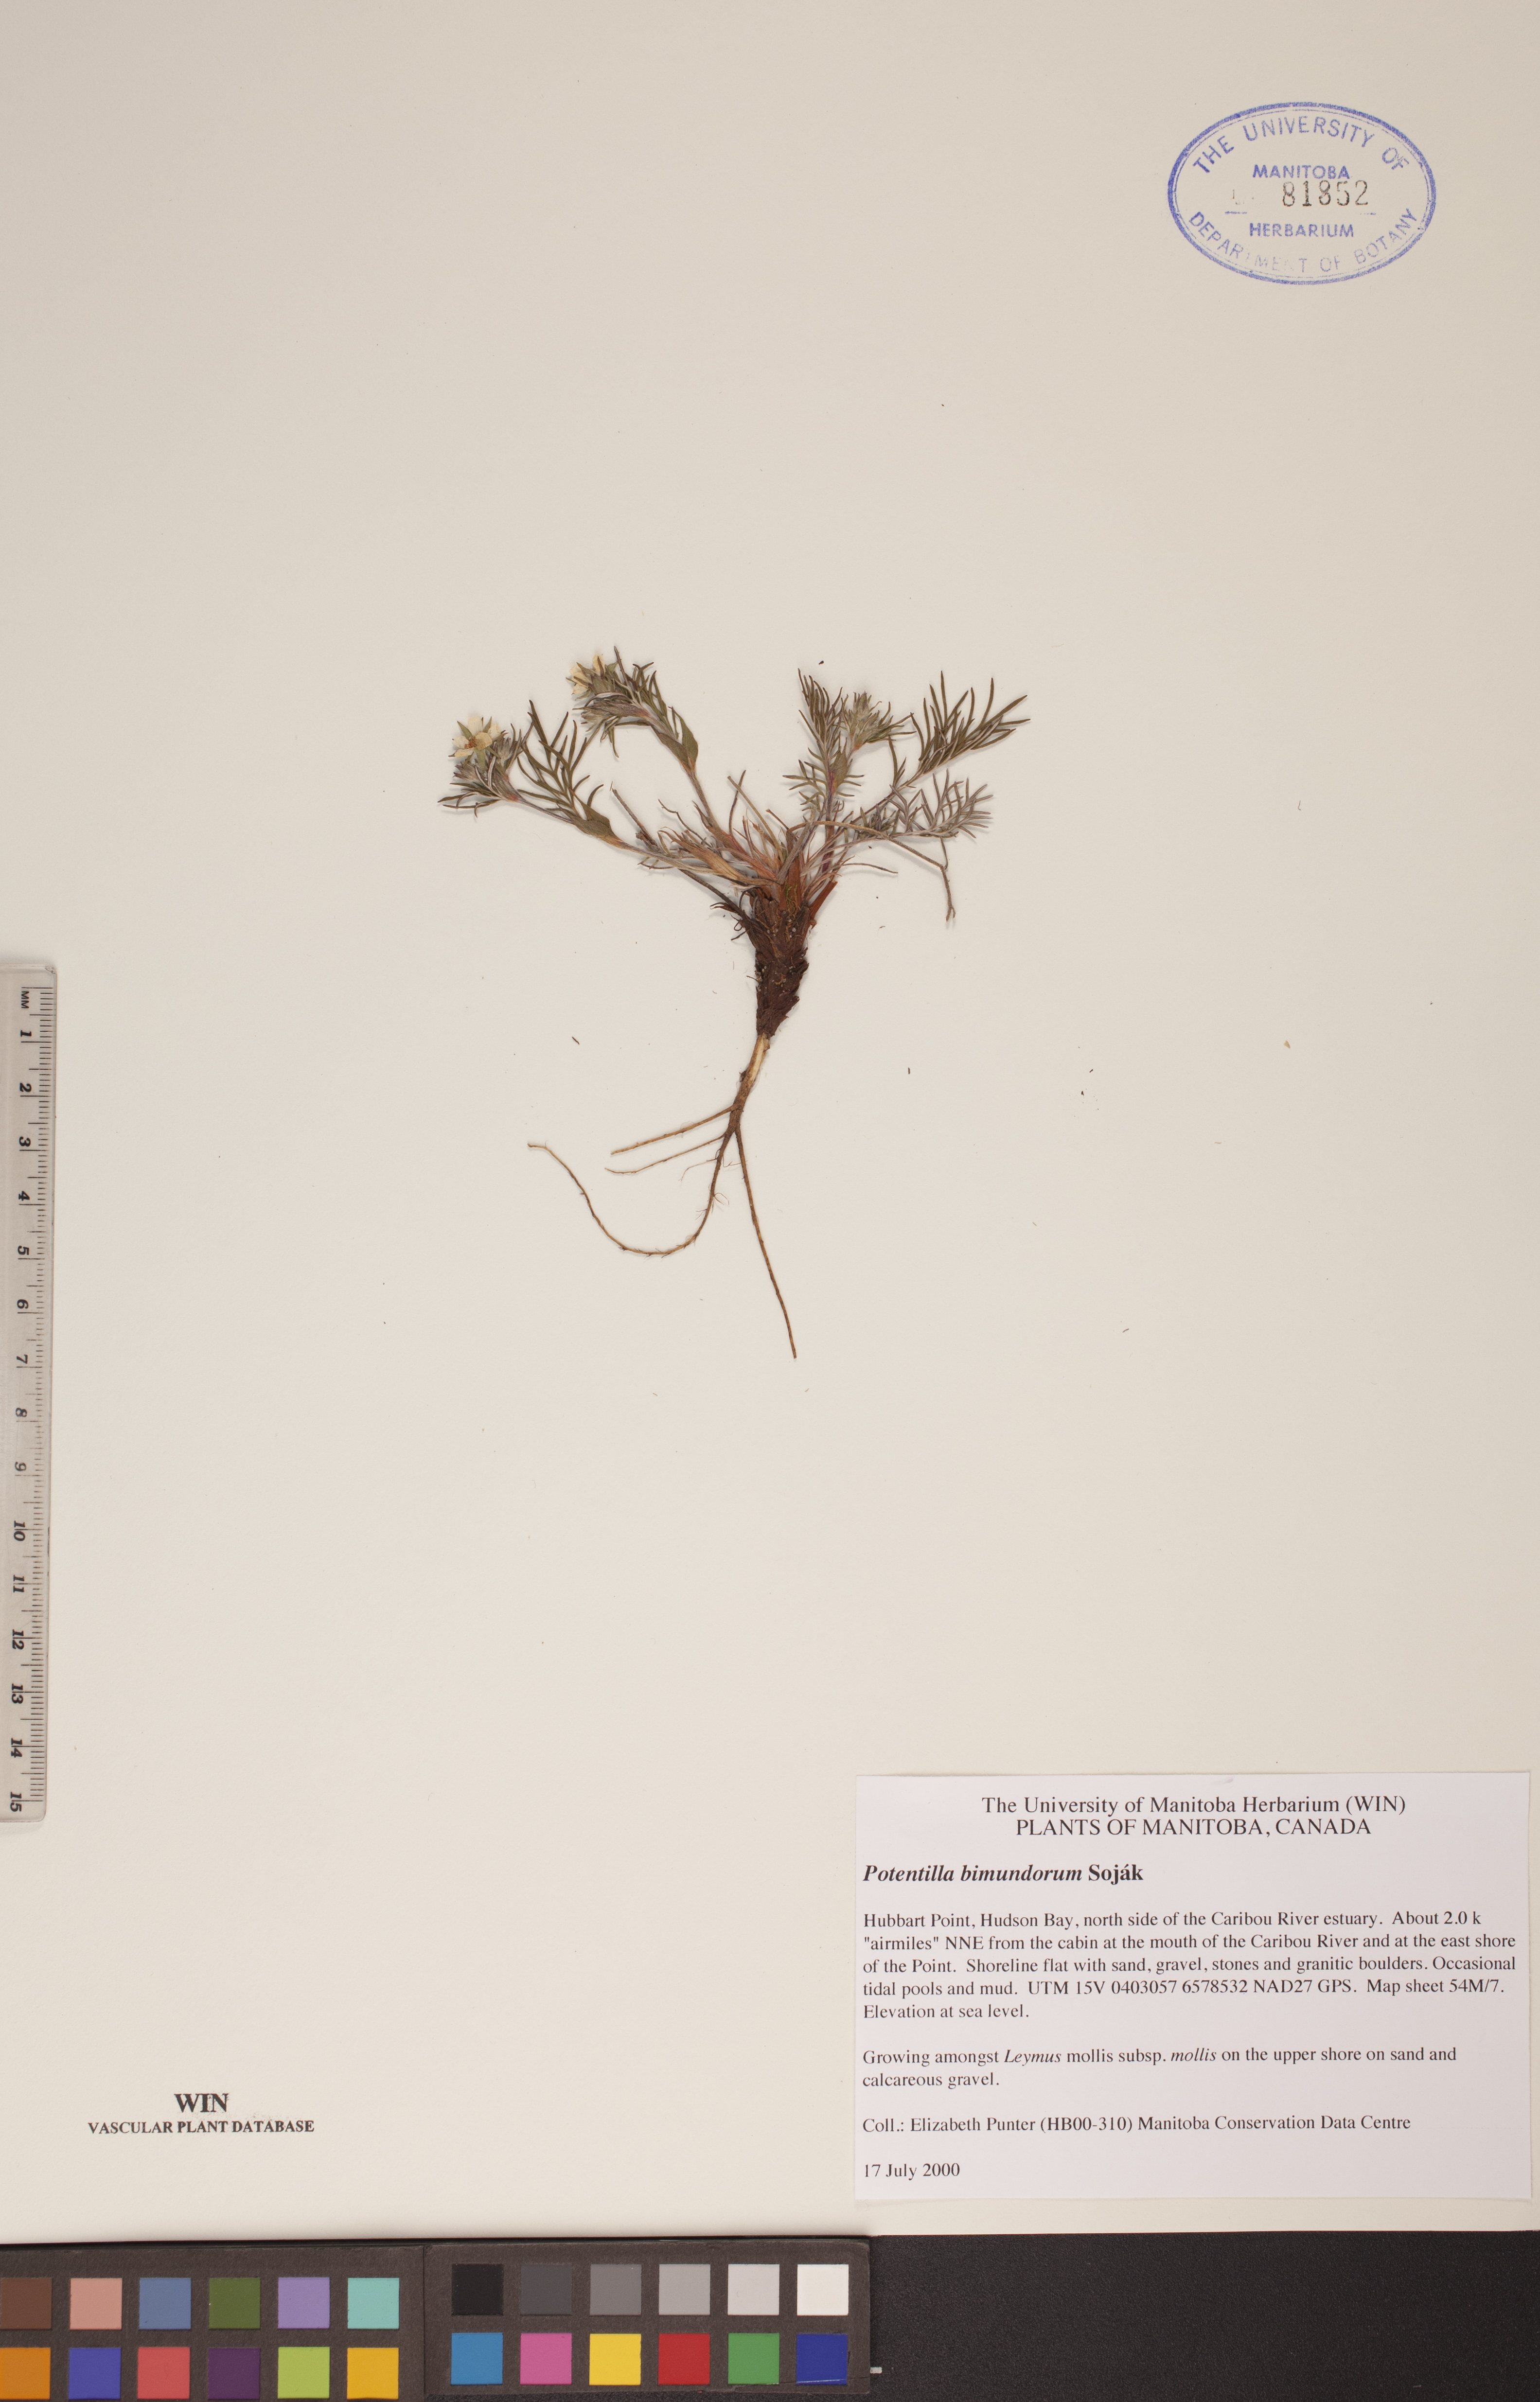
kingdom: Plantae
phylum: Tracheophyta
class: Magnoliopsida
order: Rosales
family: Rosaceae
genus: Potentilla
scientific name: Potentilla bimundorum
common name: Cut-leaved cinquefoil
